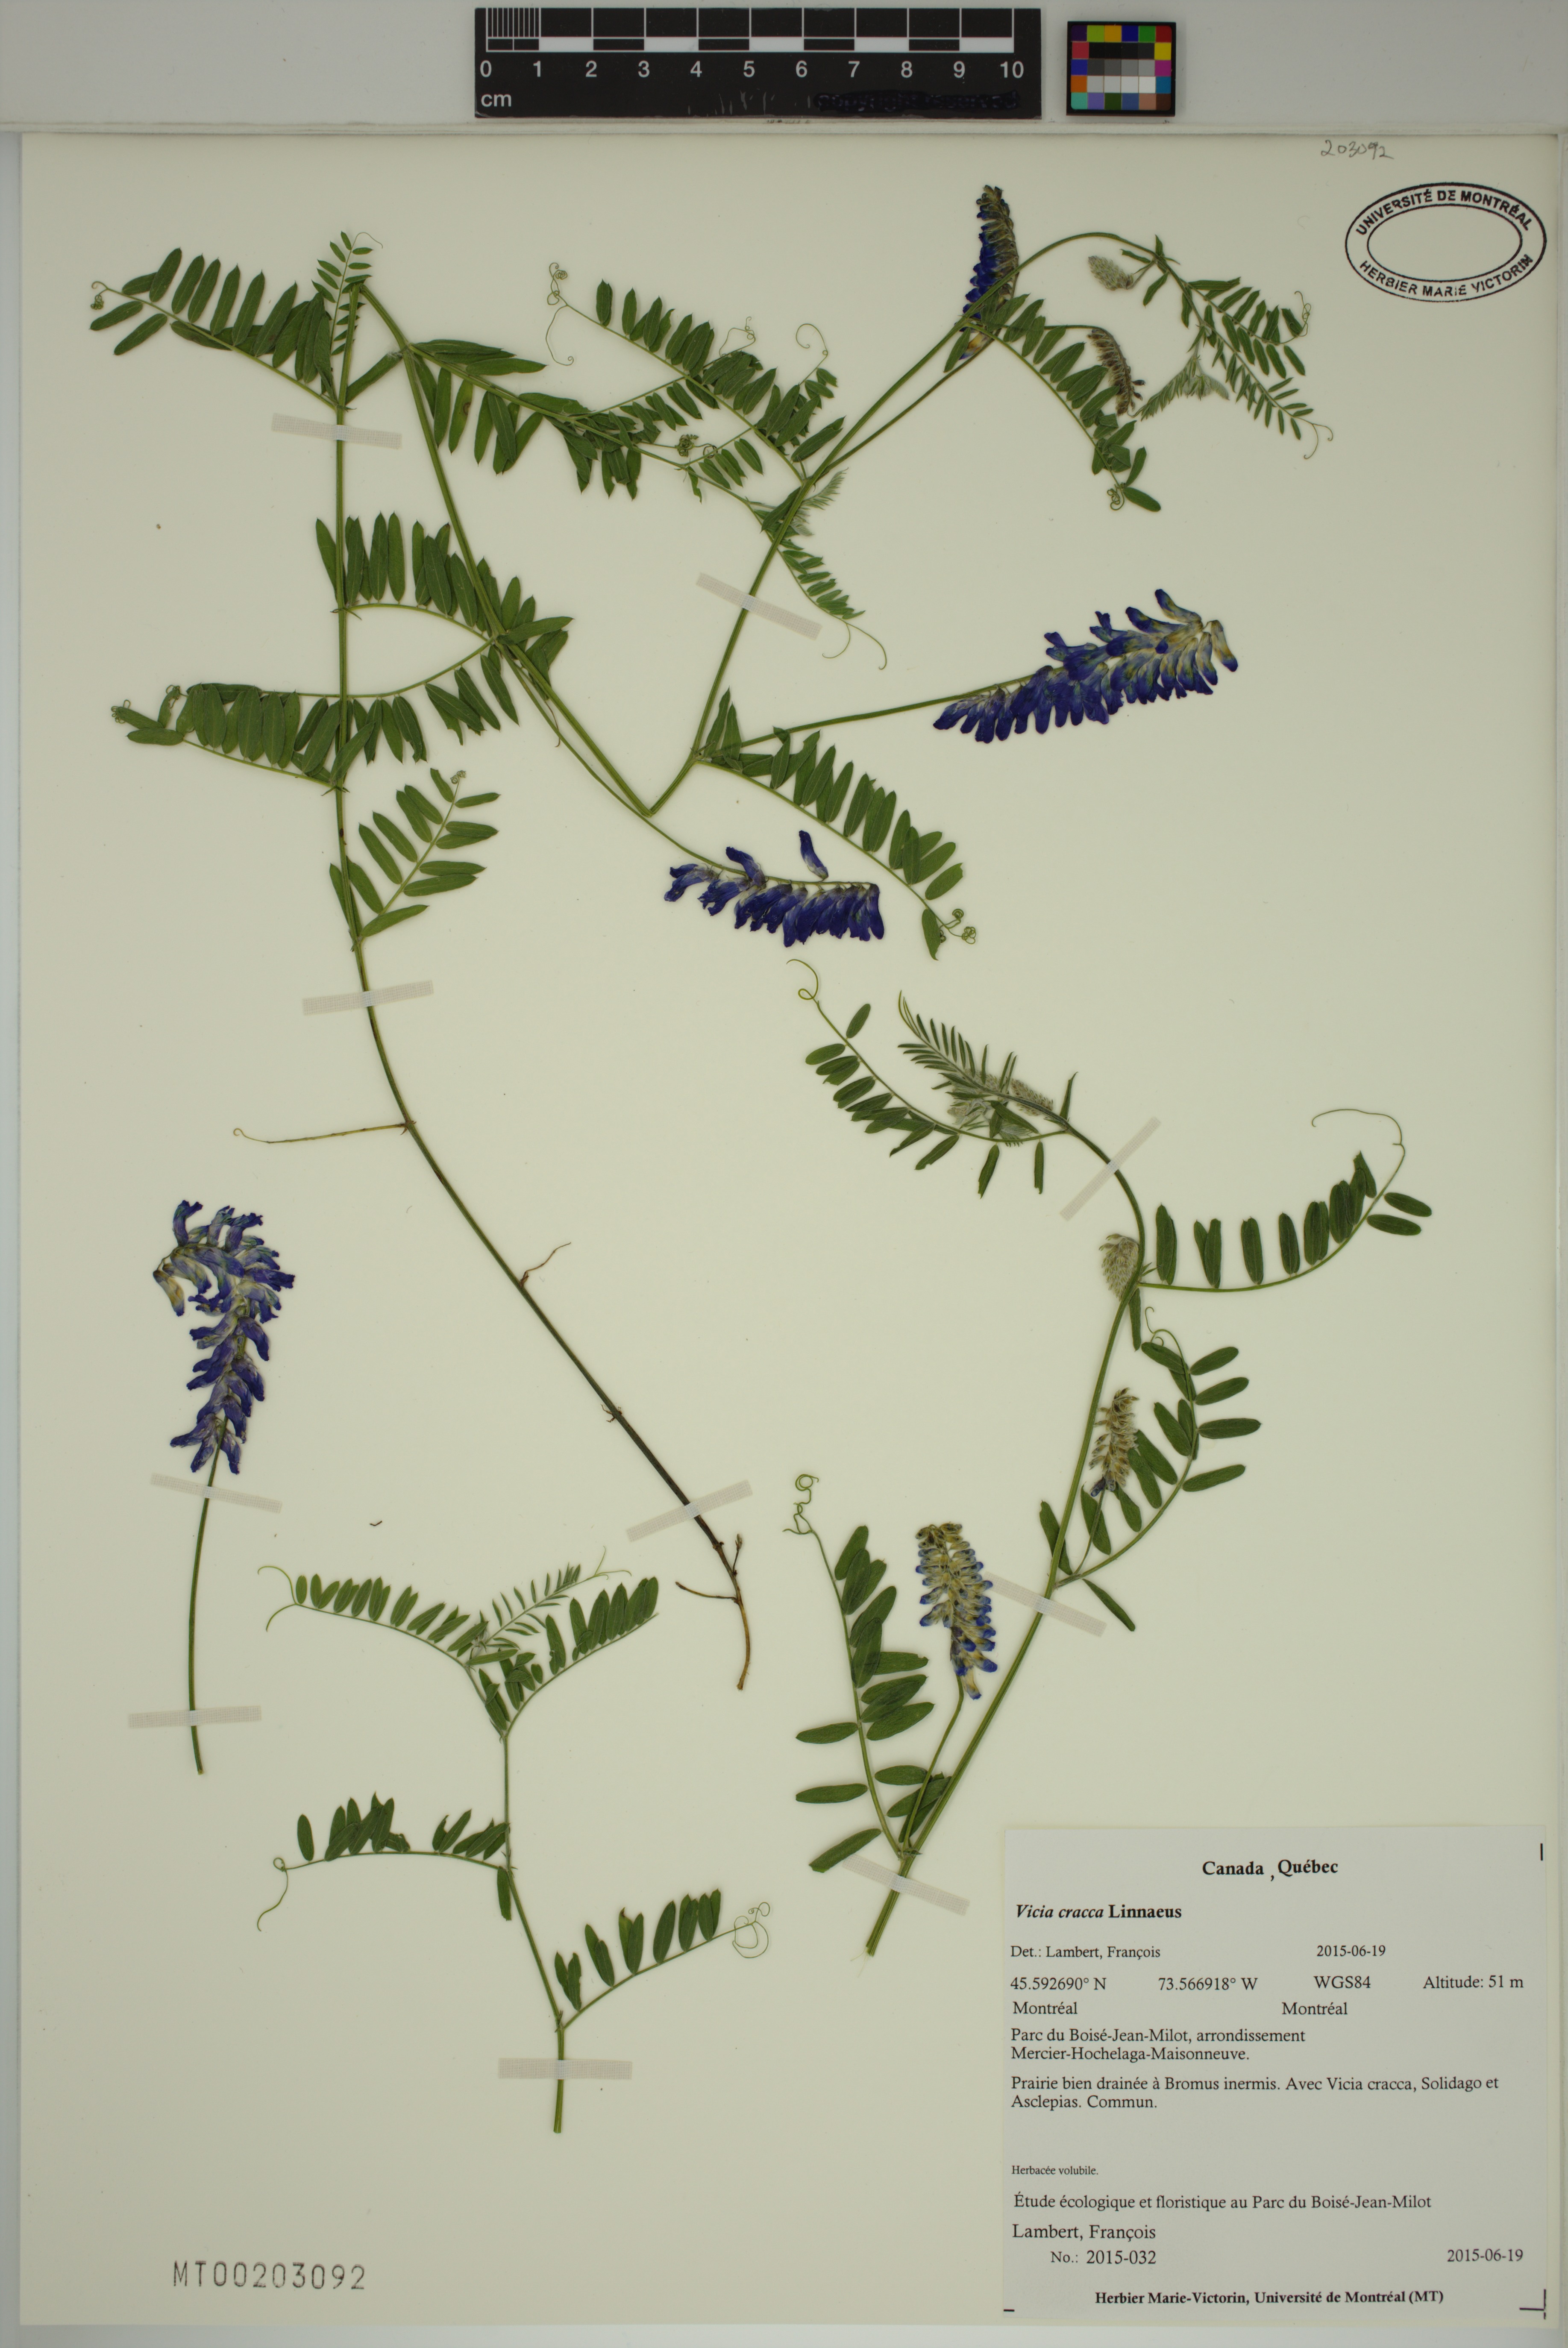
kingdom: Plantae
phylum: Tracheophyta
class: Magnoliopsida
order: Fabales
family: Fabaceae
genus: Vicia
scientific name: Vicia cracca
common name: Bird vetch
